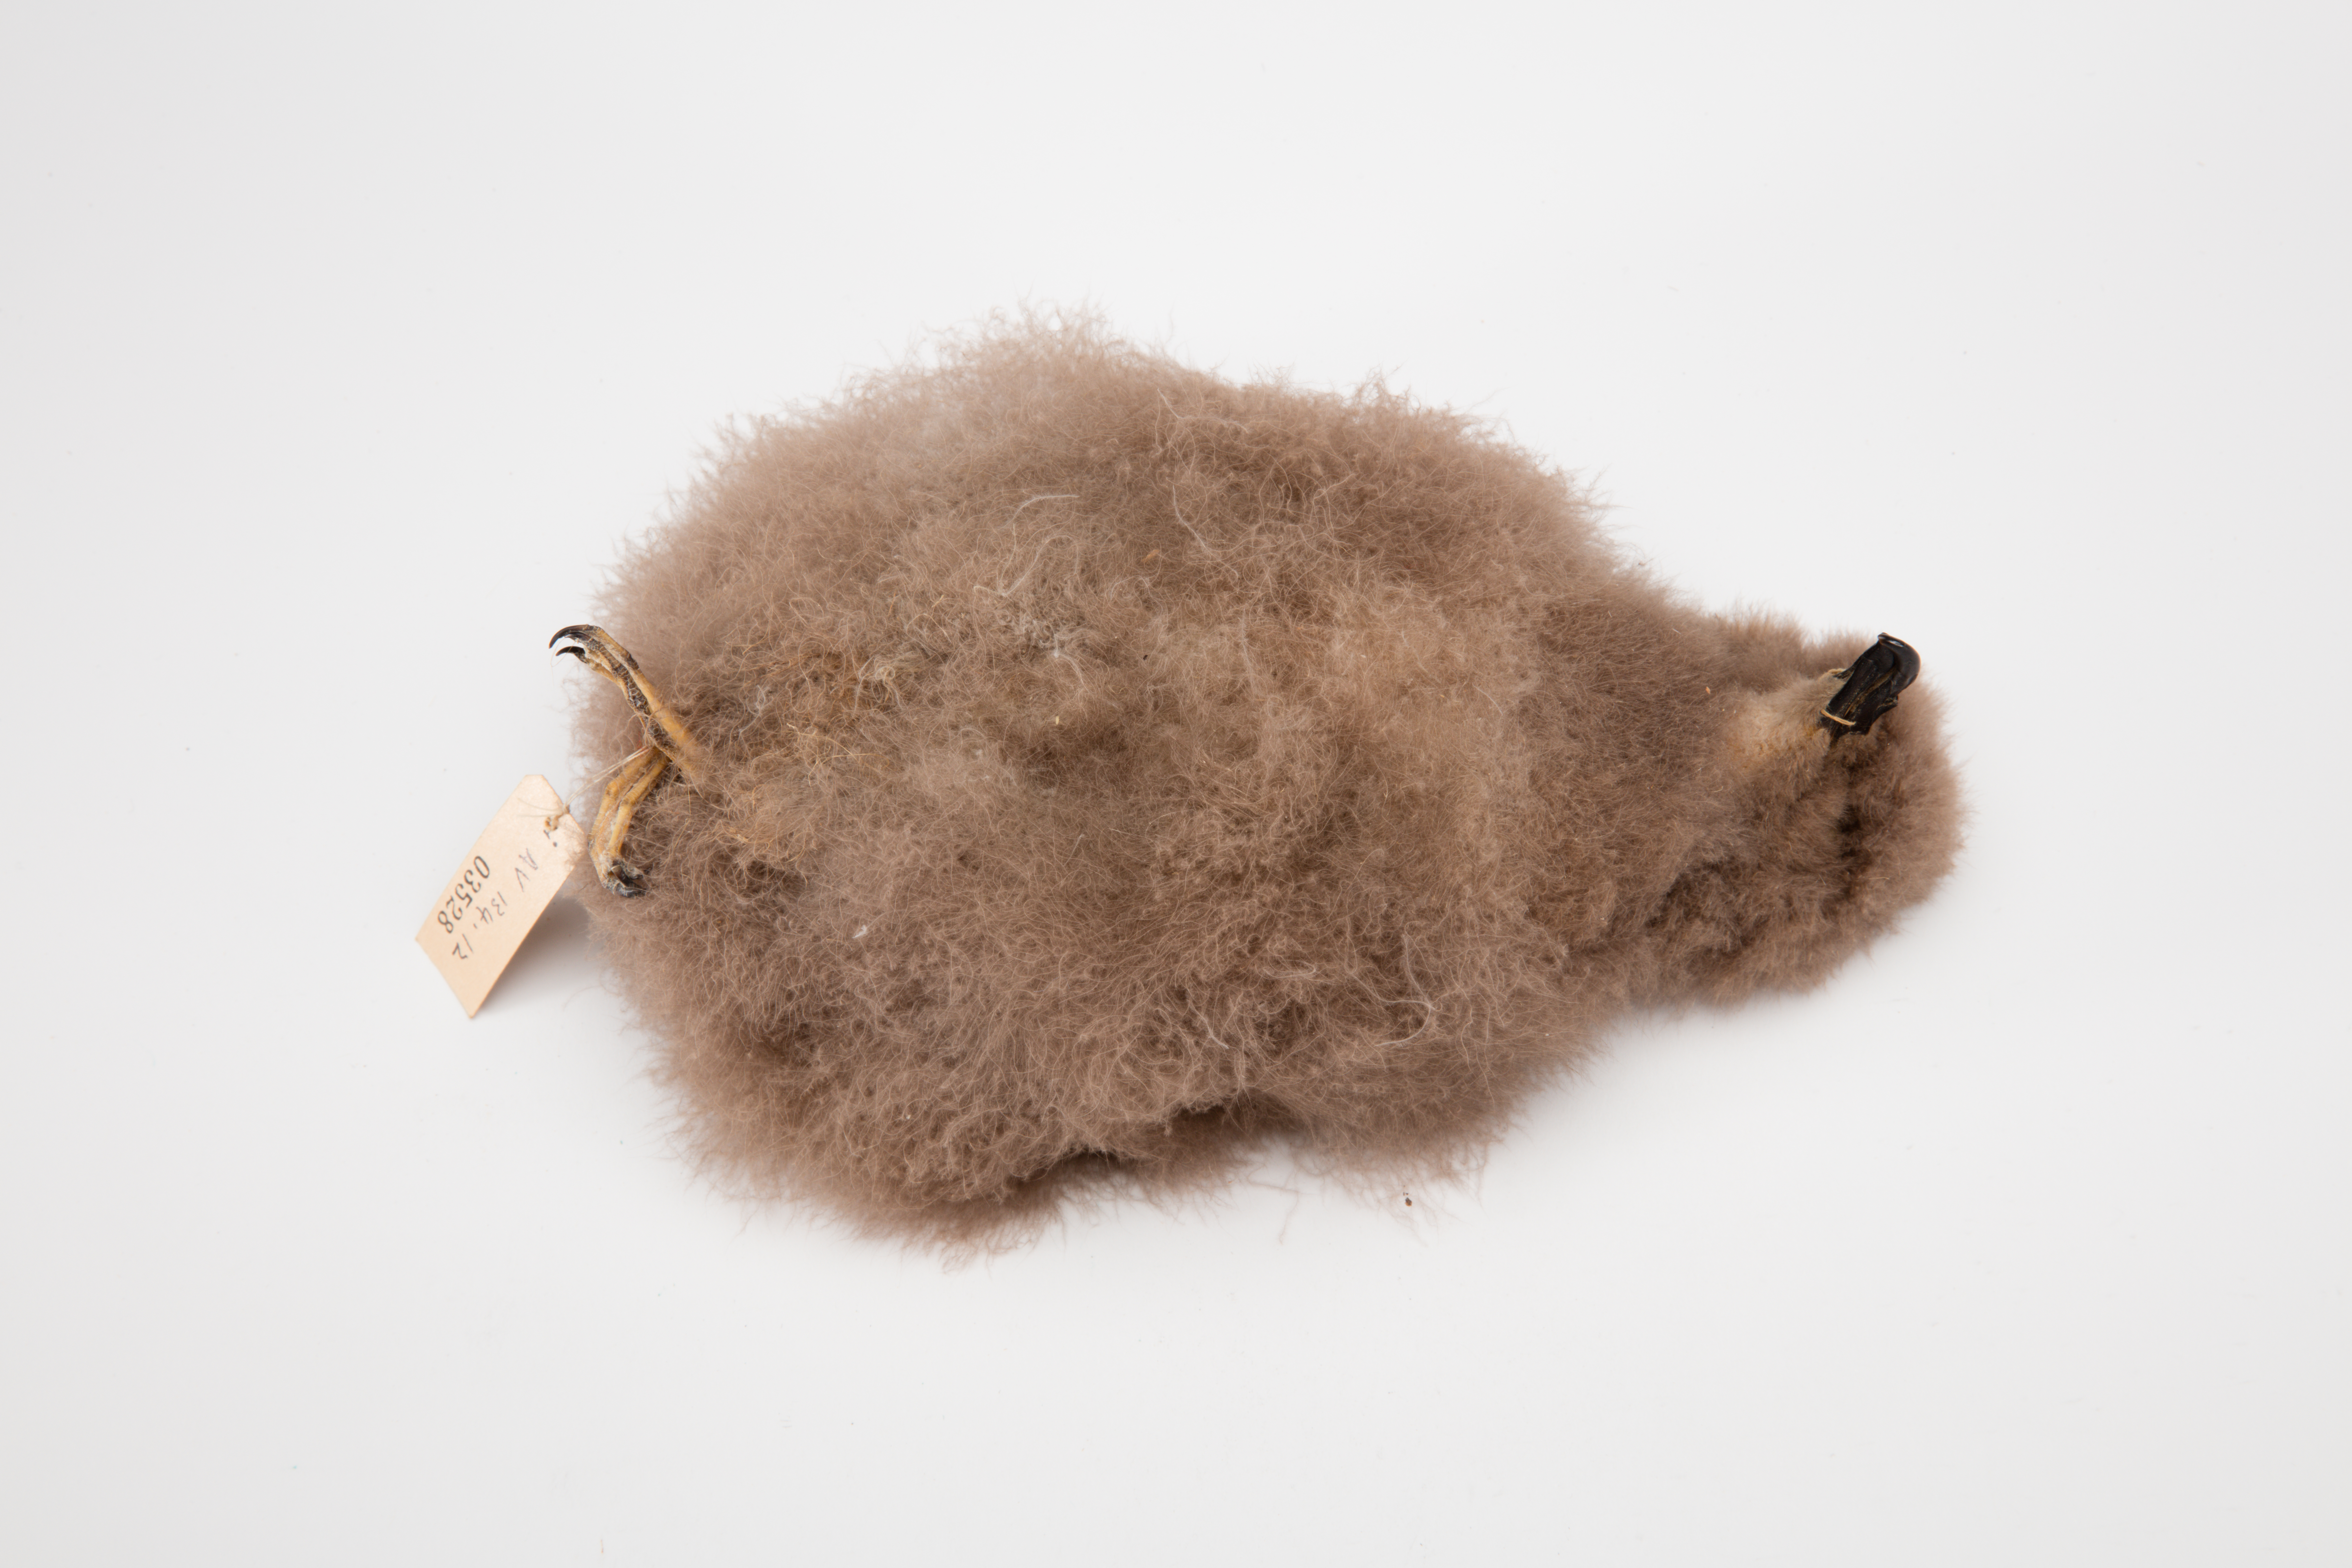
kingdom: Animalia
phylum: Chordata
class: Aves
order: Procellariiformes
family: Procellariidae
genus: Pterodroma
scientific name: Pterodroma lessonii
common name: White-headed petrel
